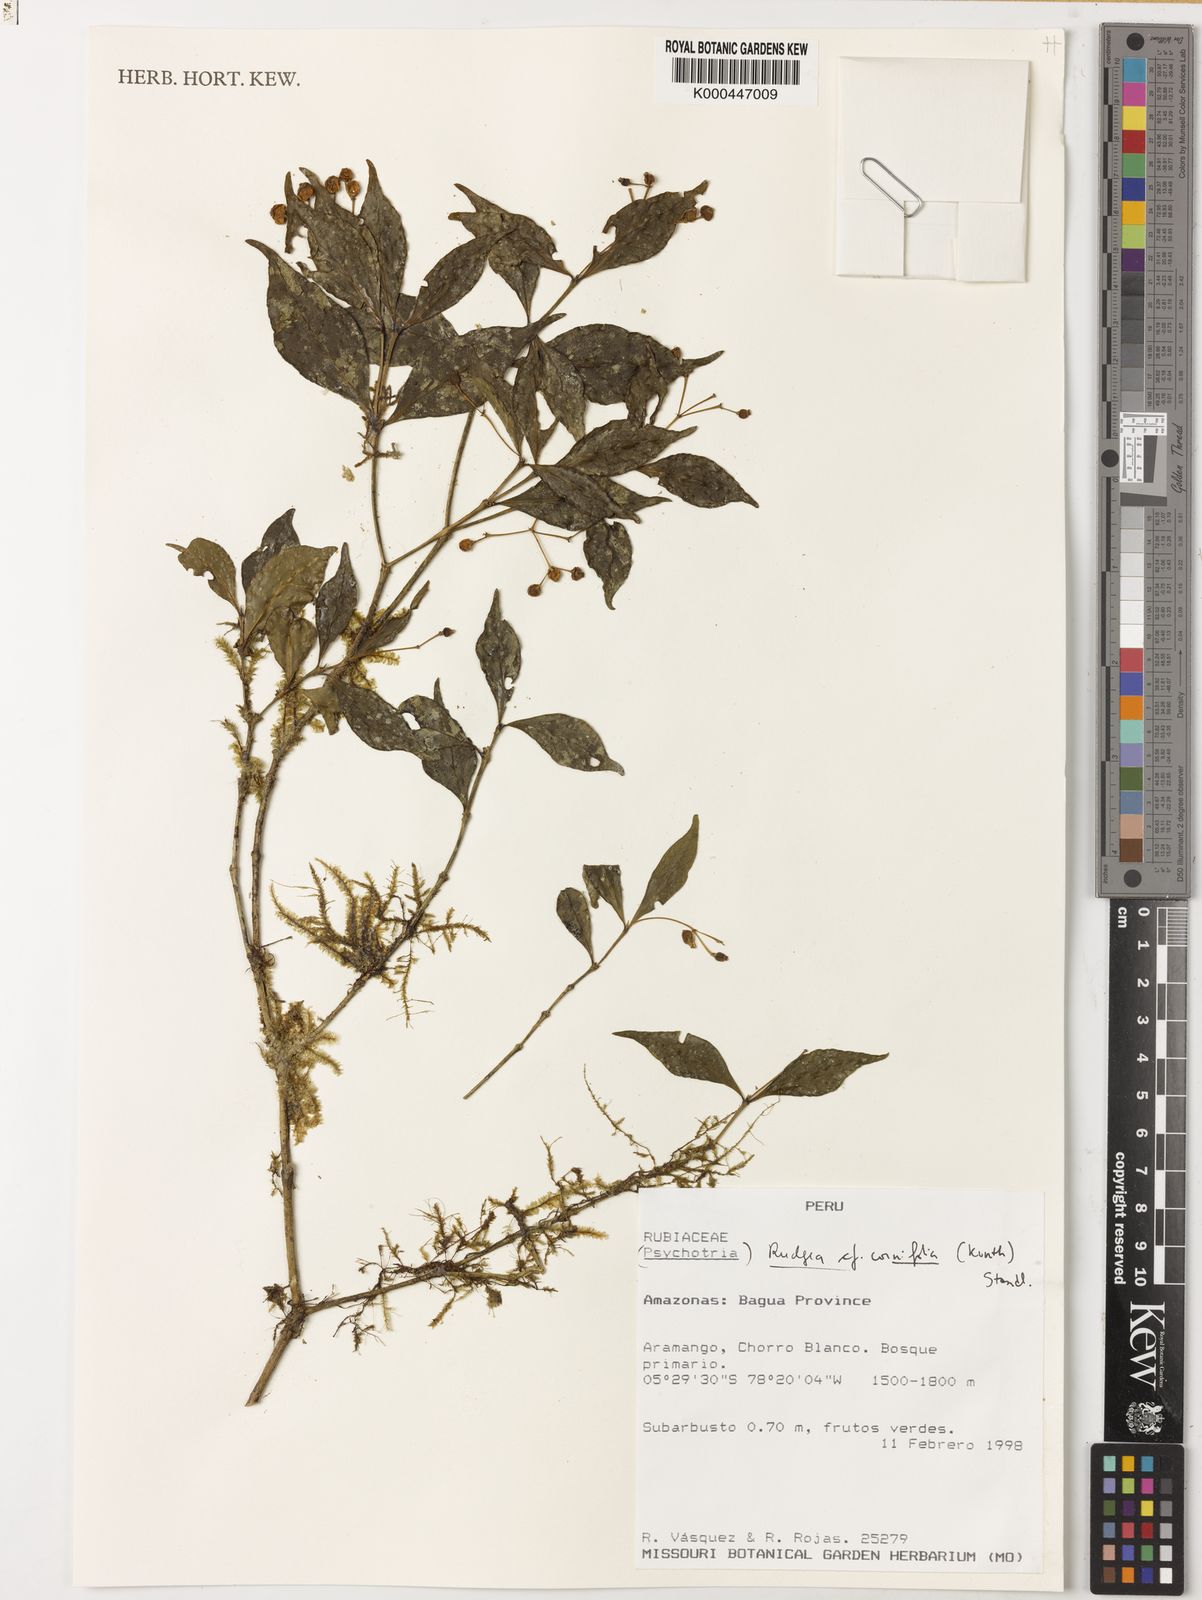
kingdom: Plantae
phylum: Tracheophyta
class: Magnoliopsida
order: Gentianales
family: Rubiaceae
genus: Rudgea
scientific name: Rudgea cornifolia
